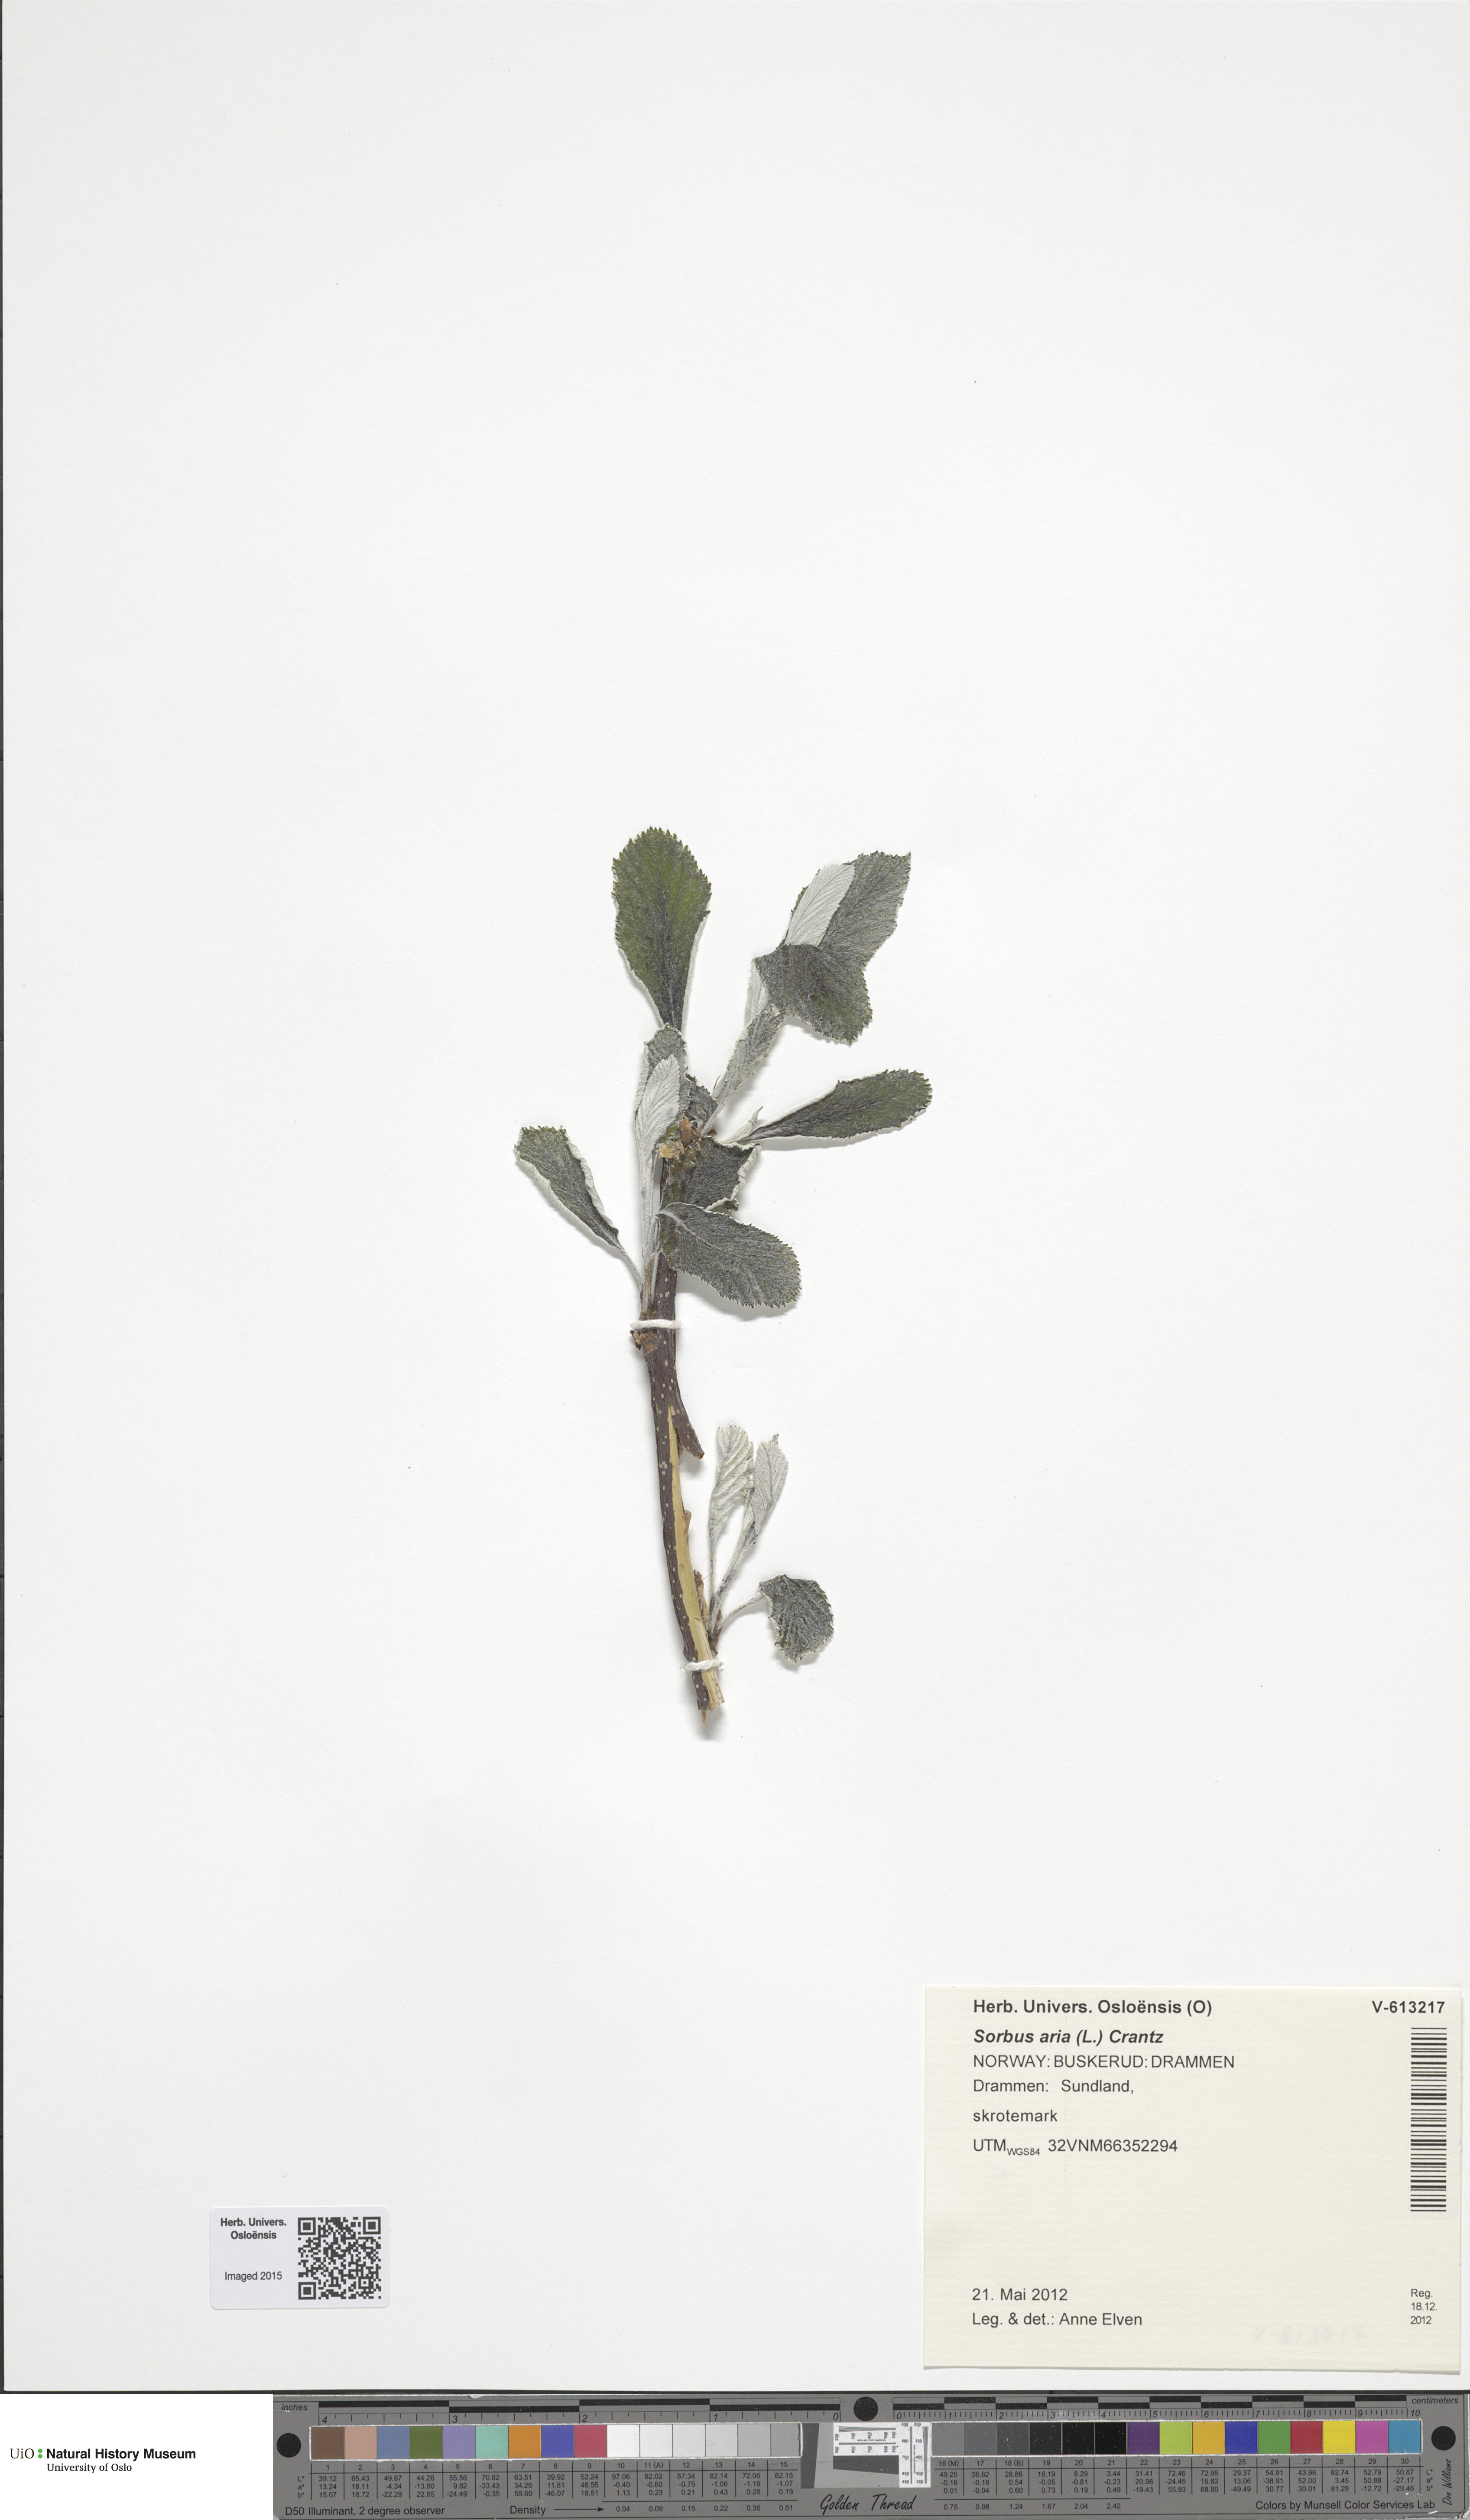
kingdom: Plantae
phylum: Tracheophyta
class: Magnoliopsida
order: Rosales
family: Rosaceae
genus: Aria
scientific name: Aria edulis
